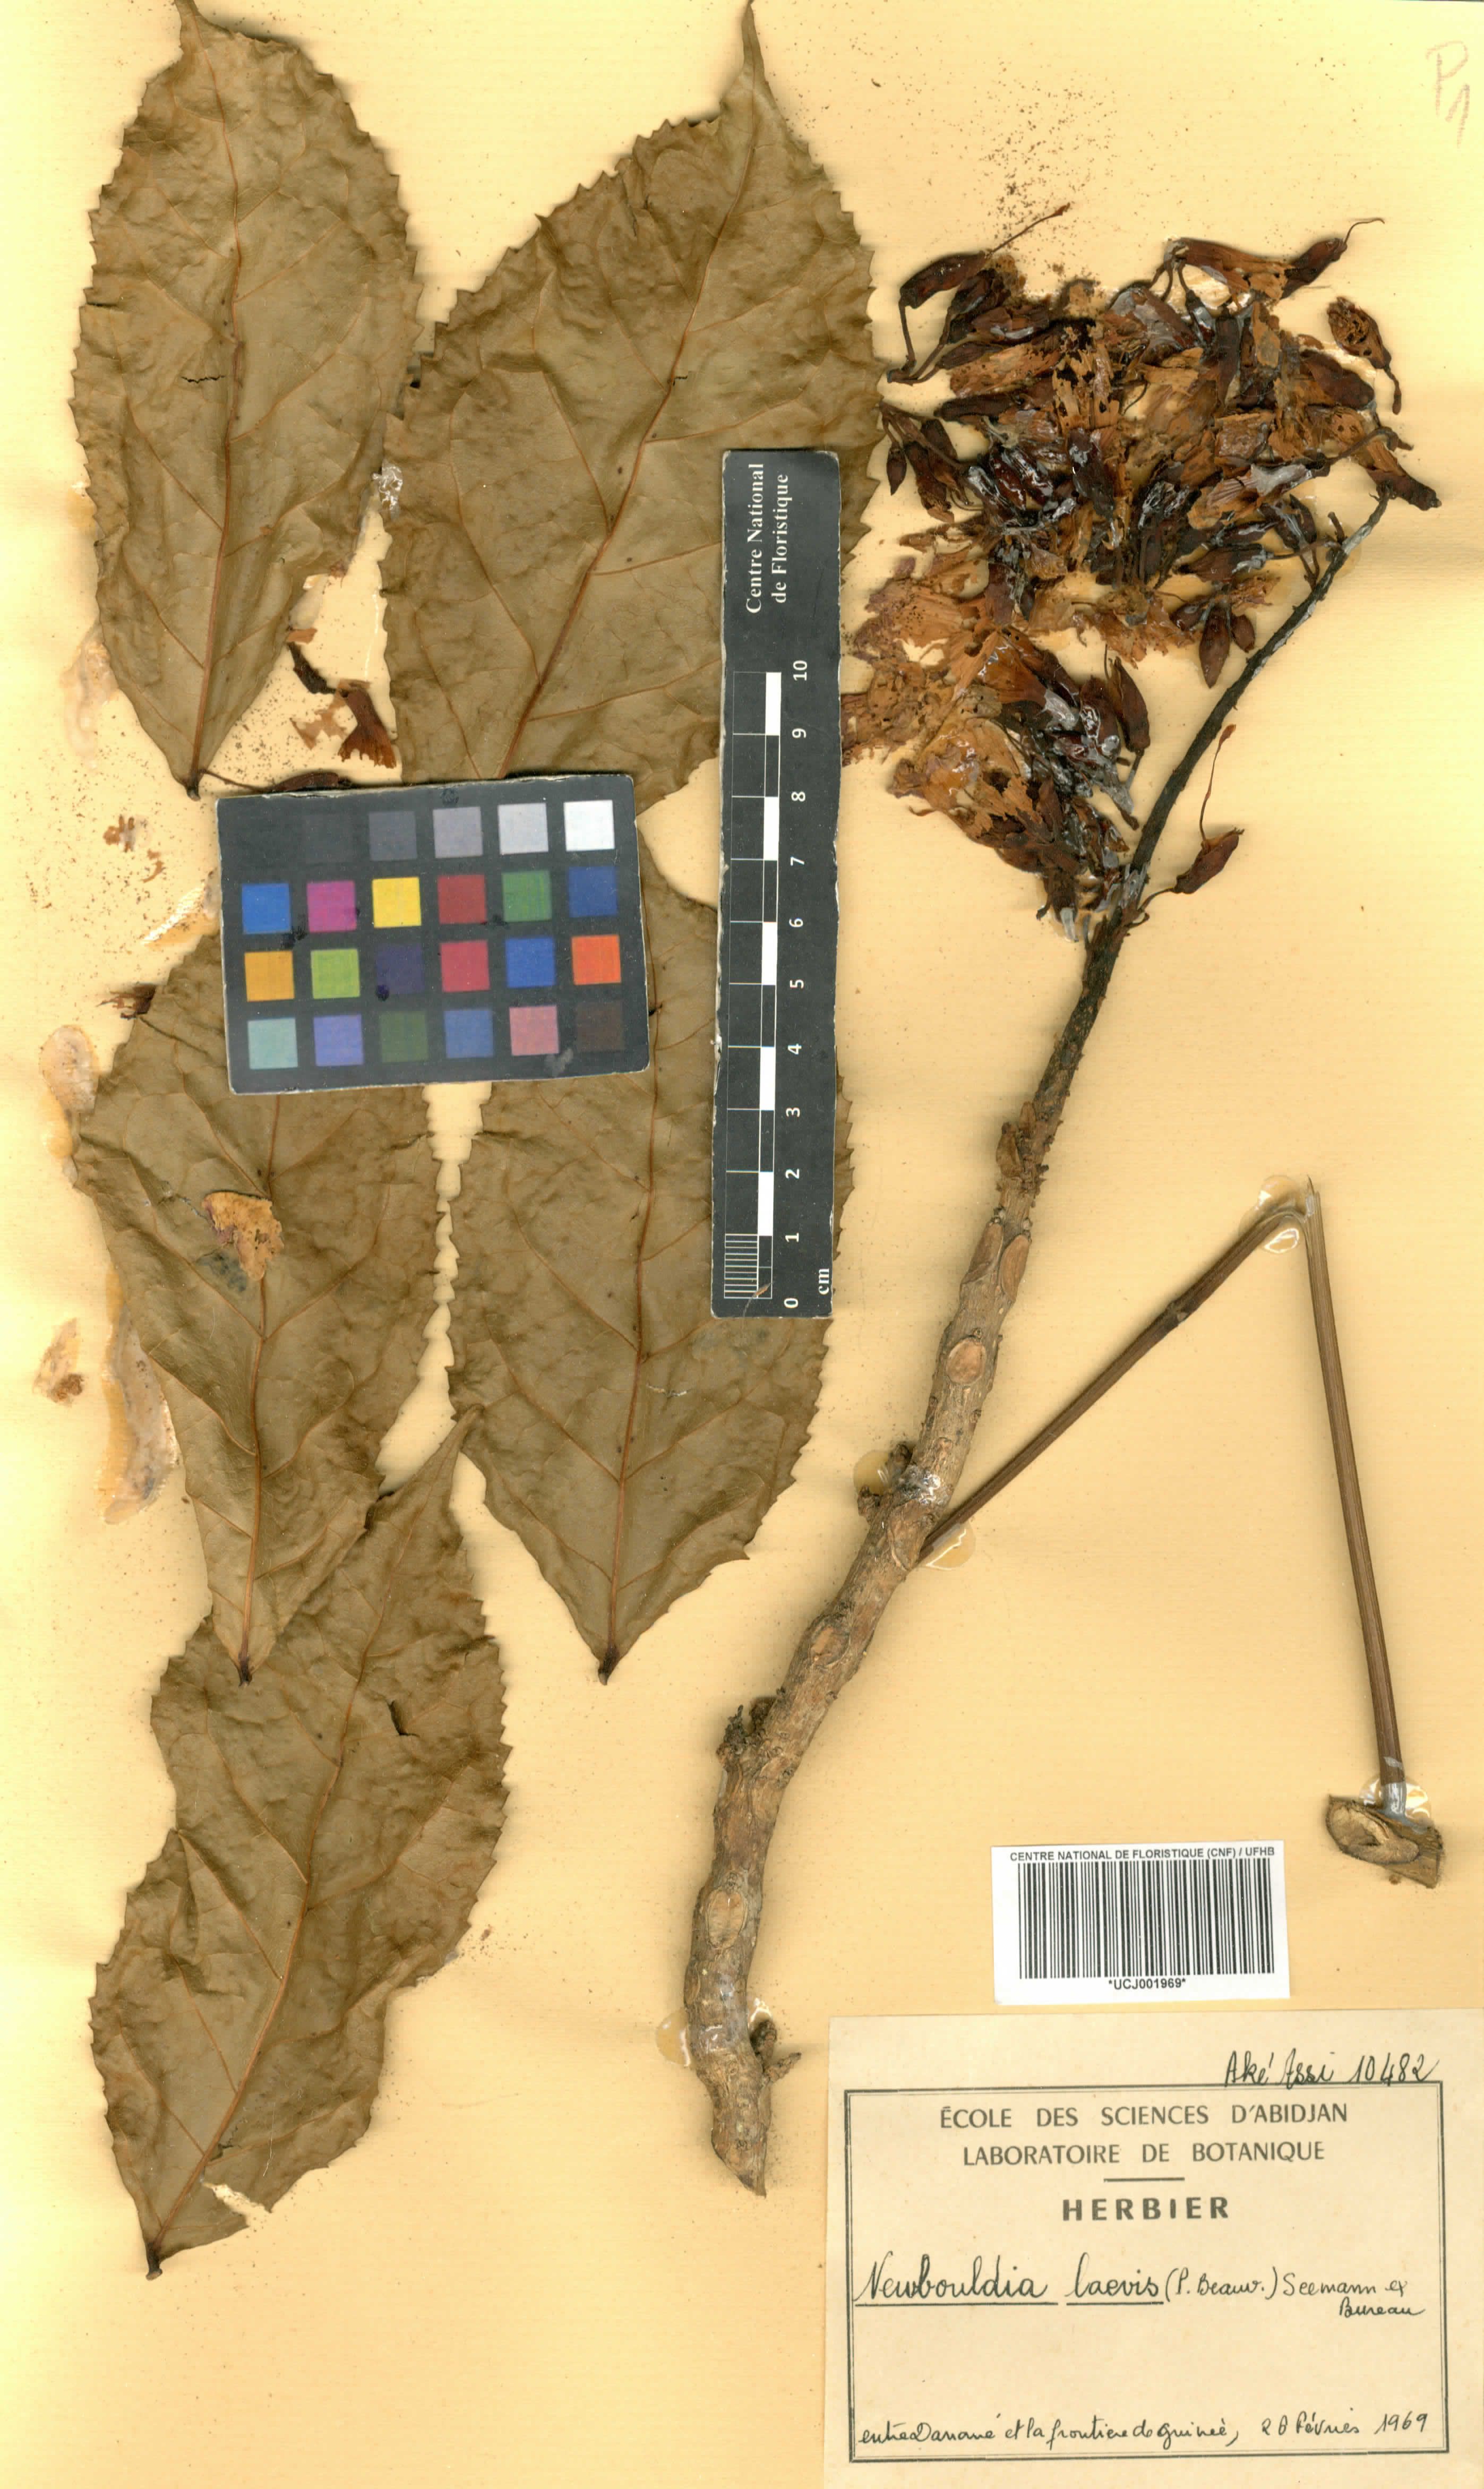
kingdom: Plantae
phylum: Tracheophyta
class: Magnoliopsida
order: Lamiales
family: Bignoniaceae
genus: Newbouldia
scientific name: Newbouldia laevis
